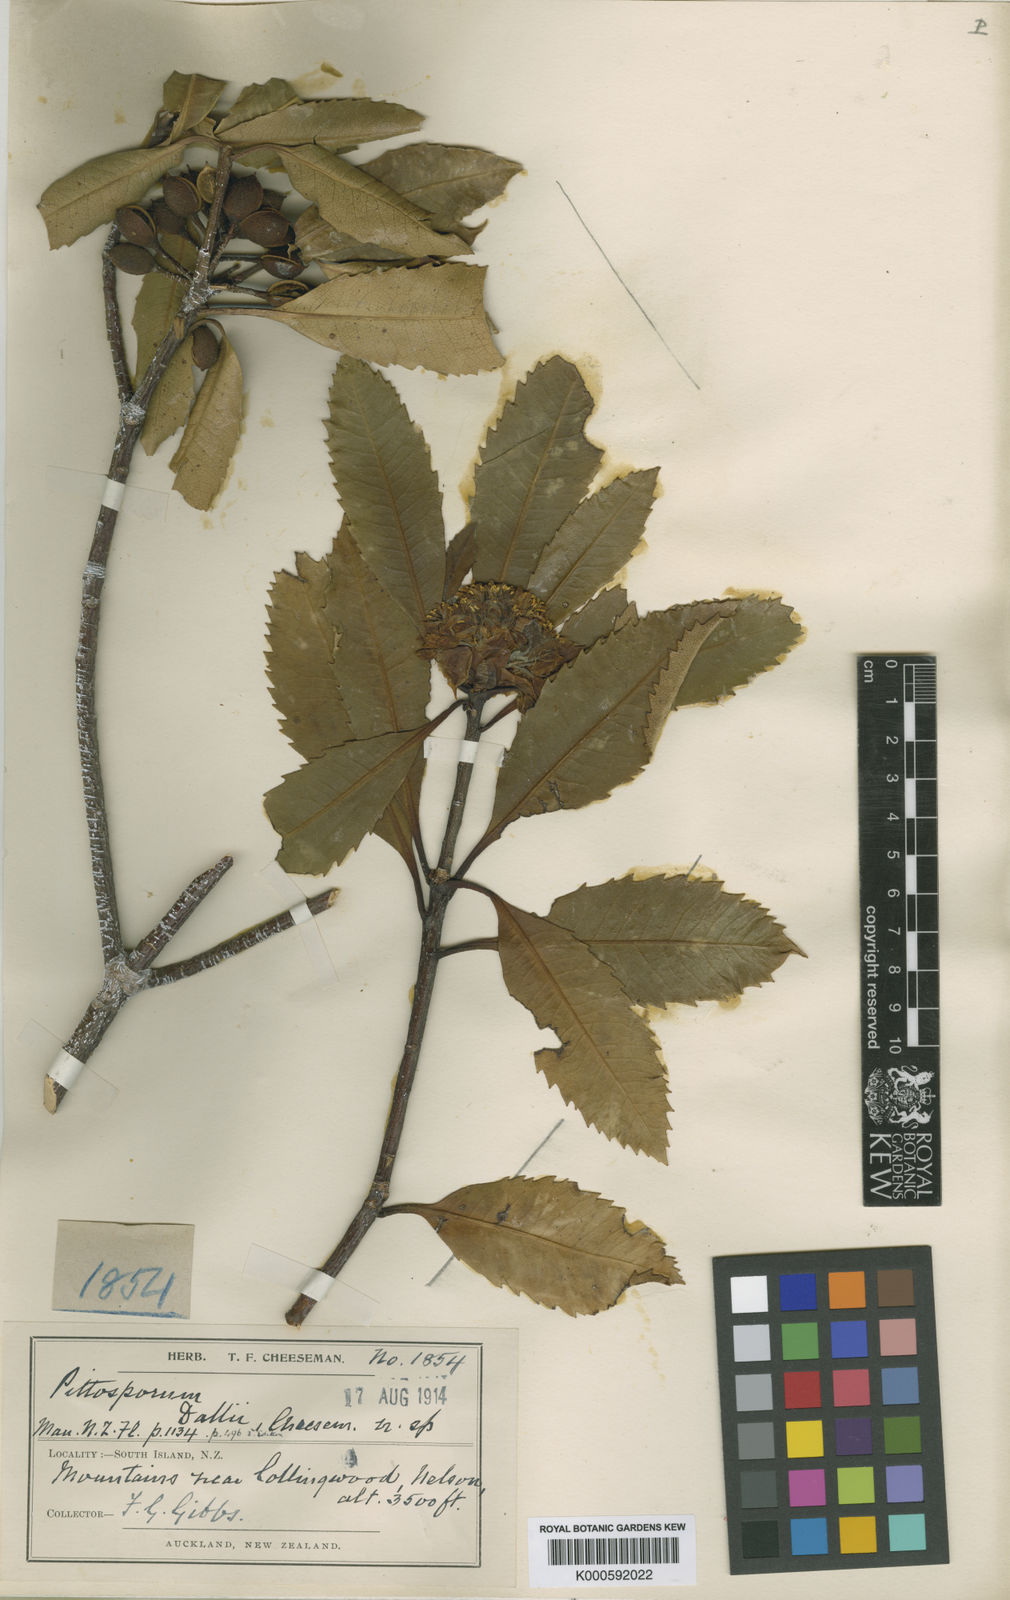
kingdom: Plantae
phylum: Tracheophyta
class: Magnoliopsida
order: Apiales
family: Pittosporaceae
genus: Pittosporum
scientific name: Pittosporum dallii
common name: Dalls pittosporum
